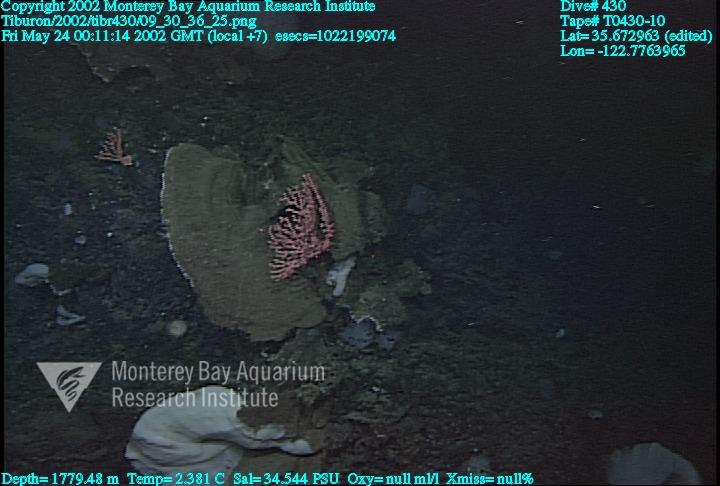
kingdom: Animalia
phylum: Porifera
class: Hexactinellida
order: Sceptrulophora
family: Farreidae
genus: Farrea
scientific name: Farrea occa
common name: Reversed glass sponge
